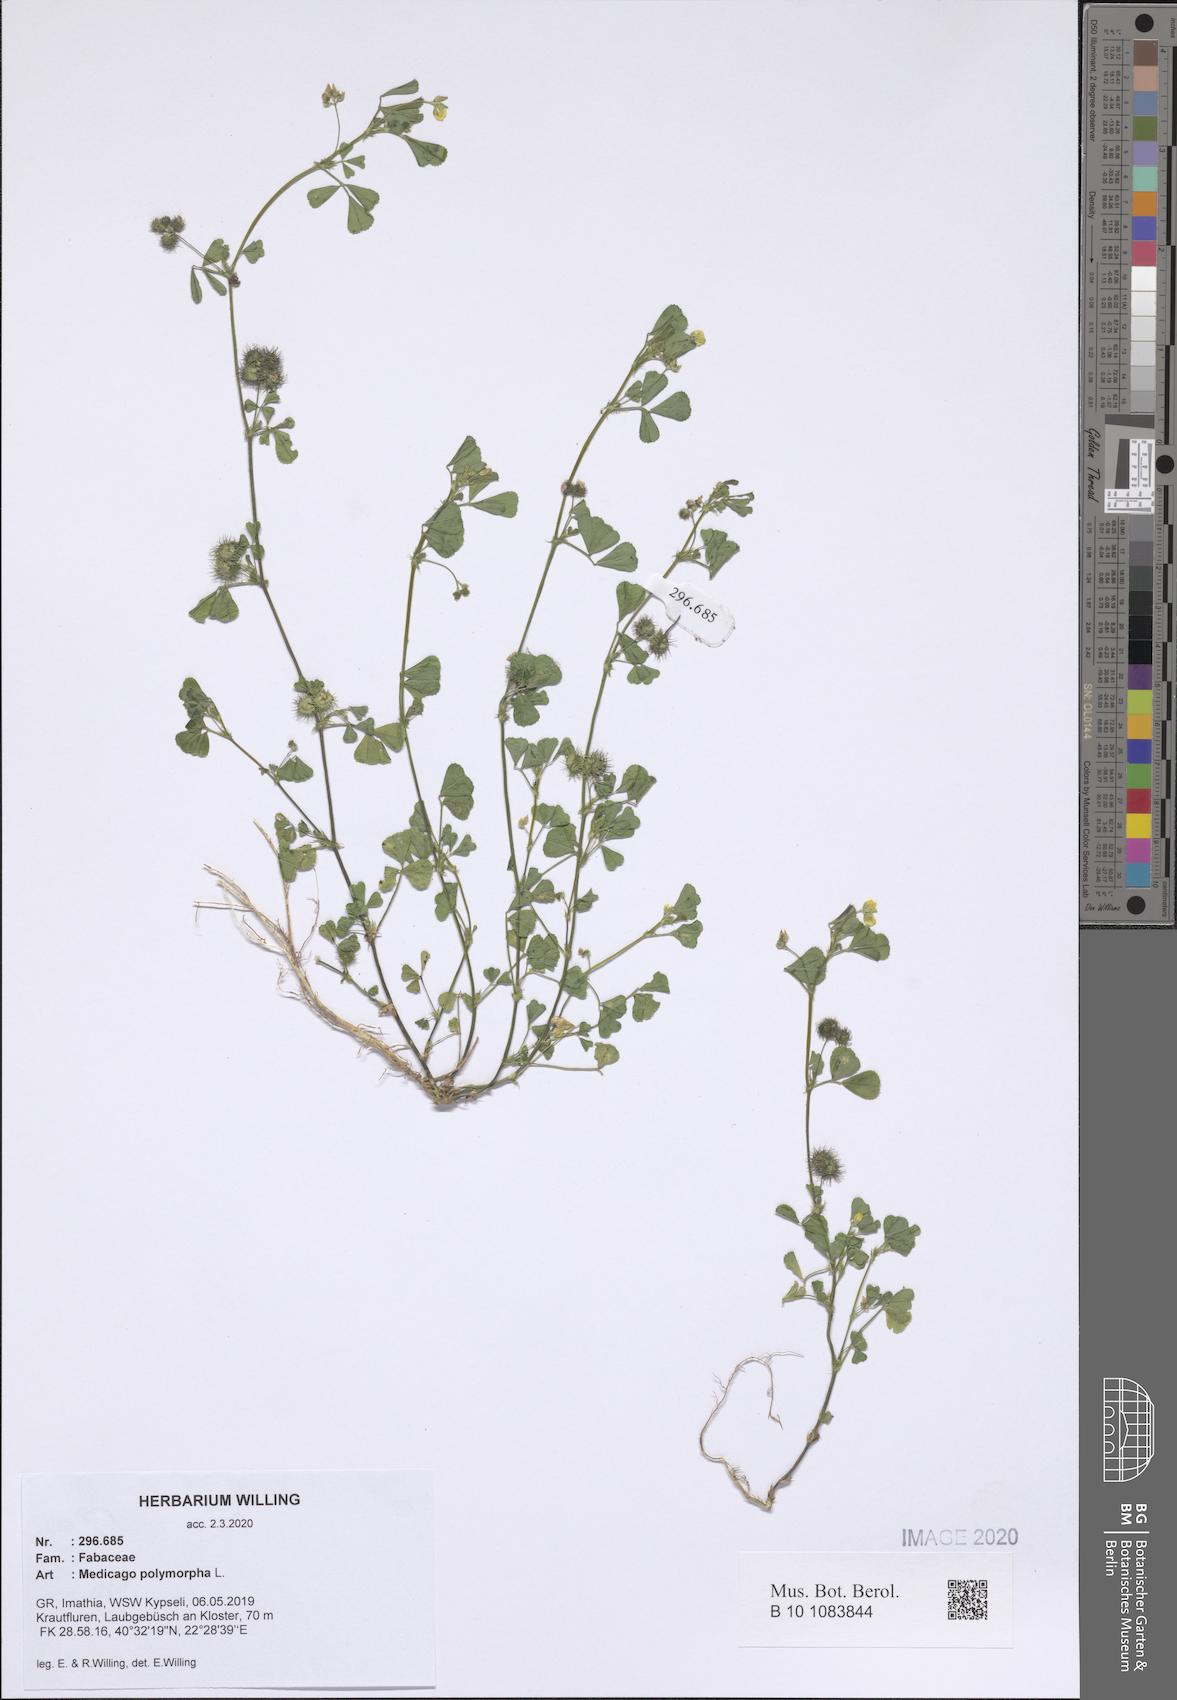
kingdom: Plantae
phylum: Tracheophyta
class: Magnoliopsida
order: Fabales
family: Fabaceae
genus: Medicago
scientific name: Medicago polymorpha
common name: Burclover
